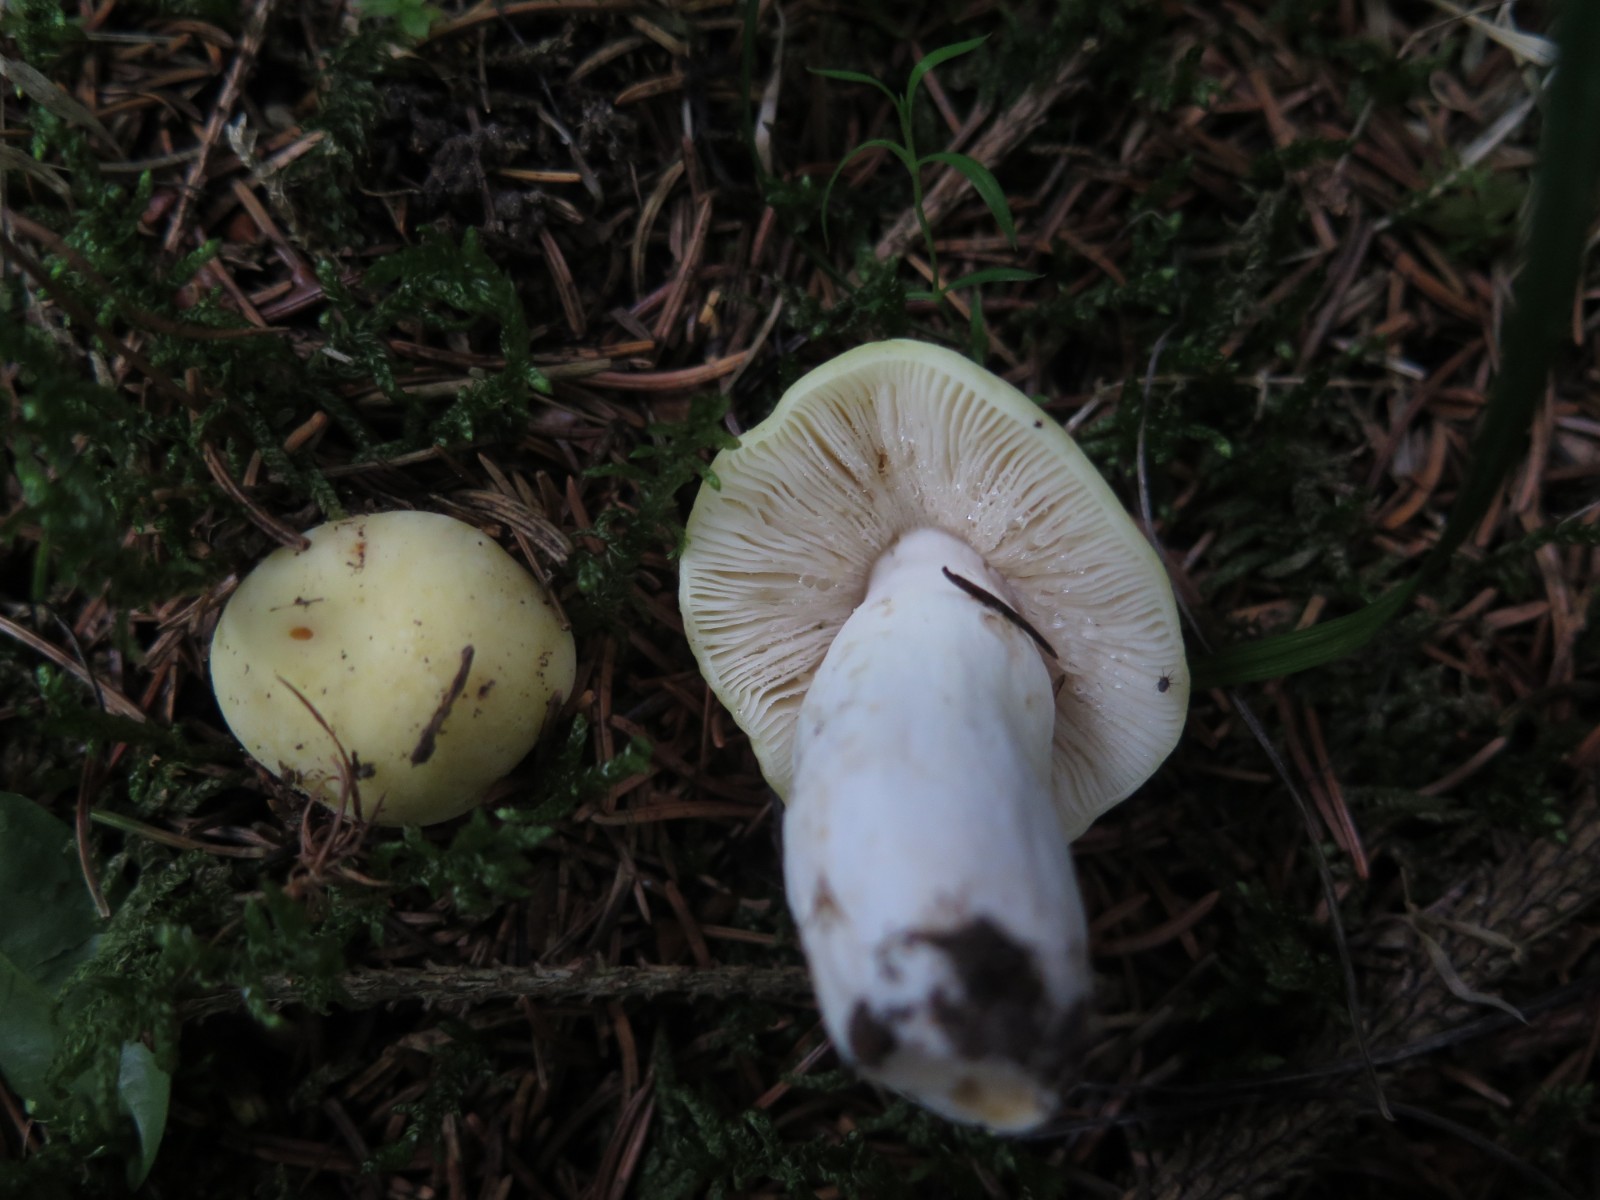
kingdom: Fungi
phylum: Basidiomycota
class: Agaricomycetes
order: Russulales
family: Russulaceae
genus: Russula
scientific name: Russula
